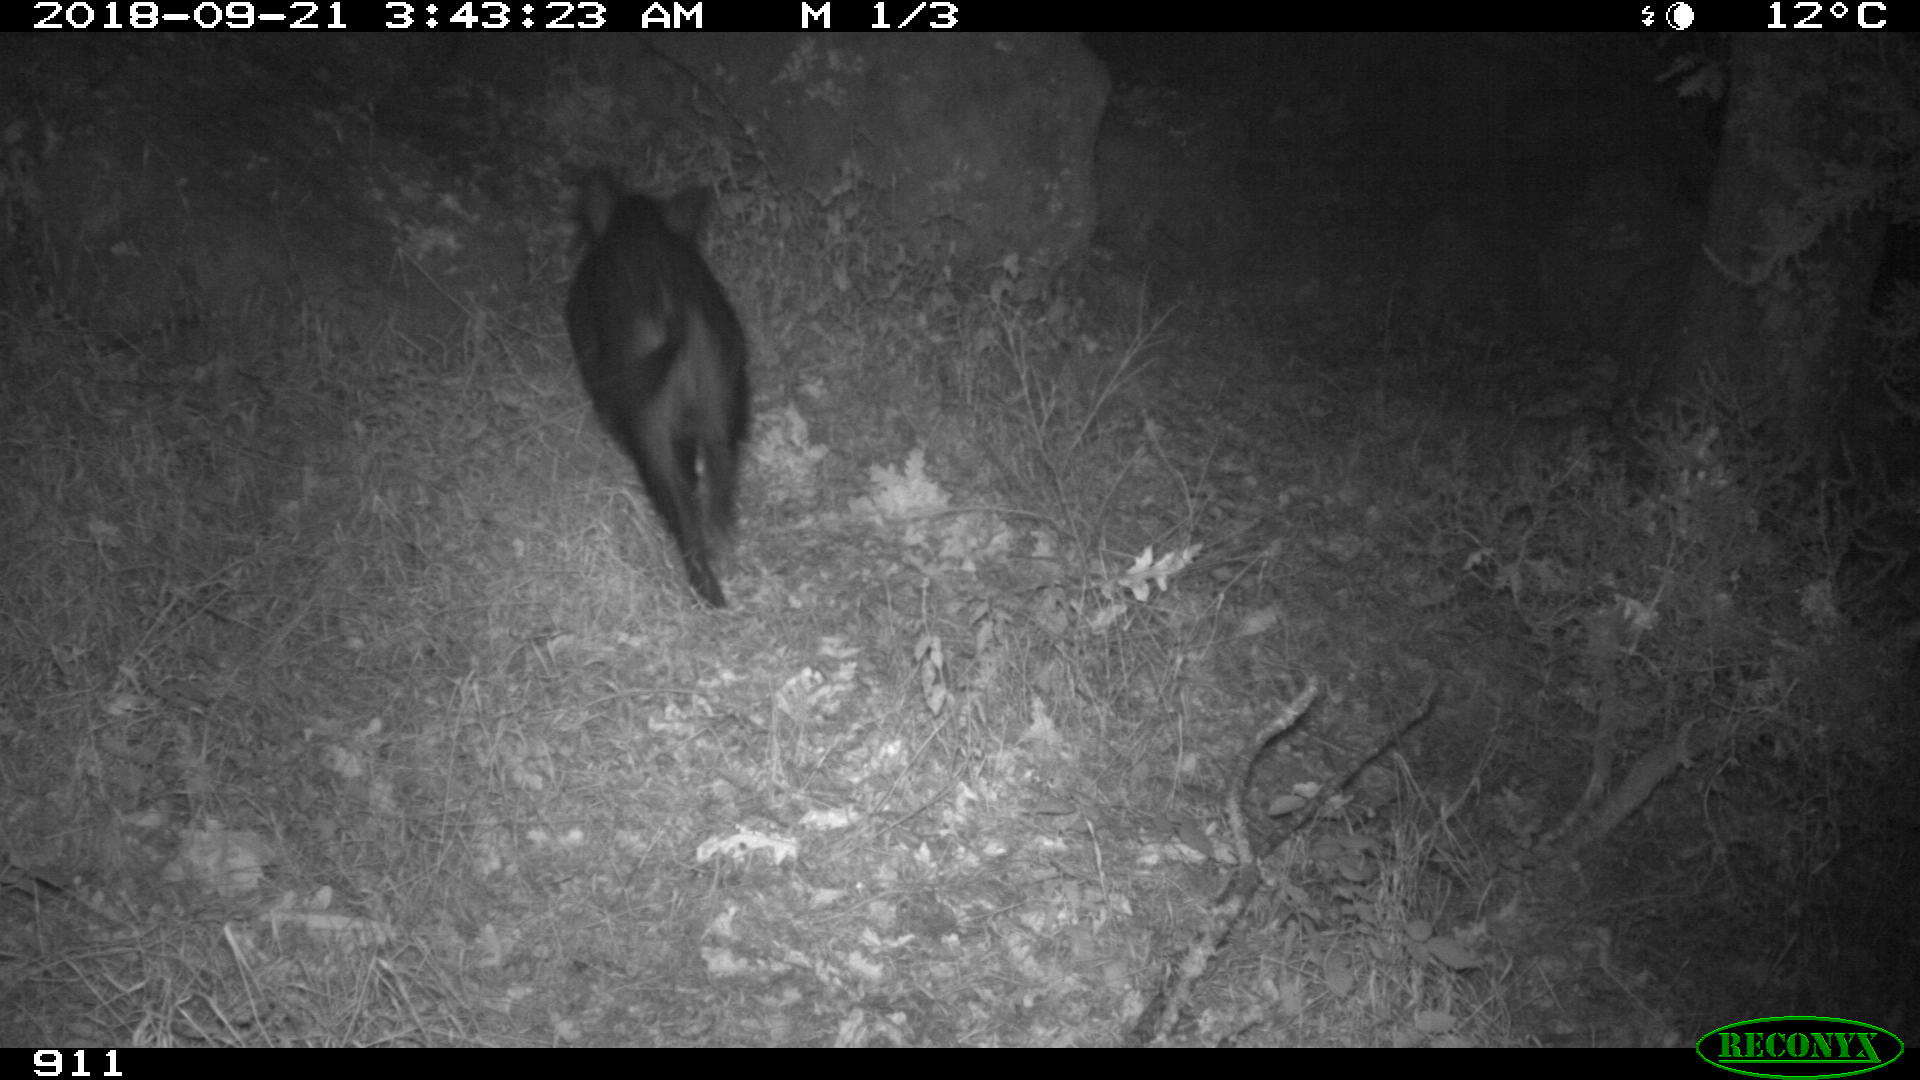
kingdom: Animalia
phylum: Chordata
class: Mammalia
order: Artiodactyla
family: Suidae
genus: Sus
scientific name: Sus scrofa
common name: Wild boar
